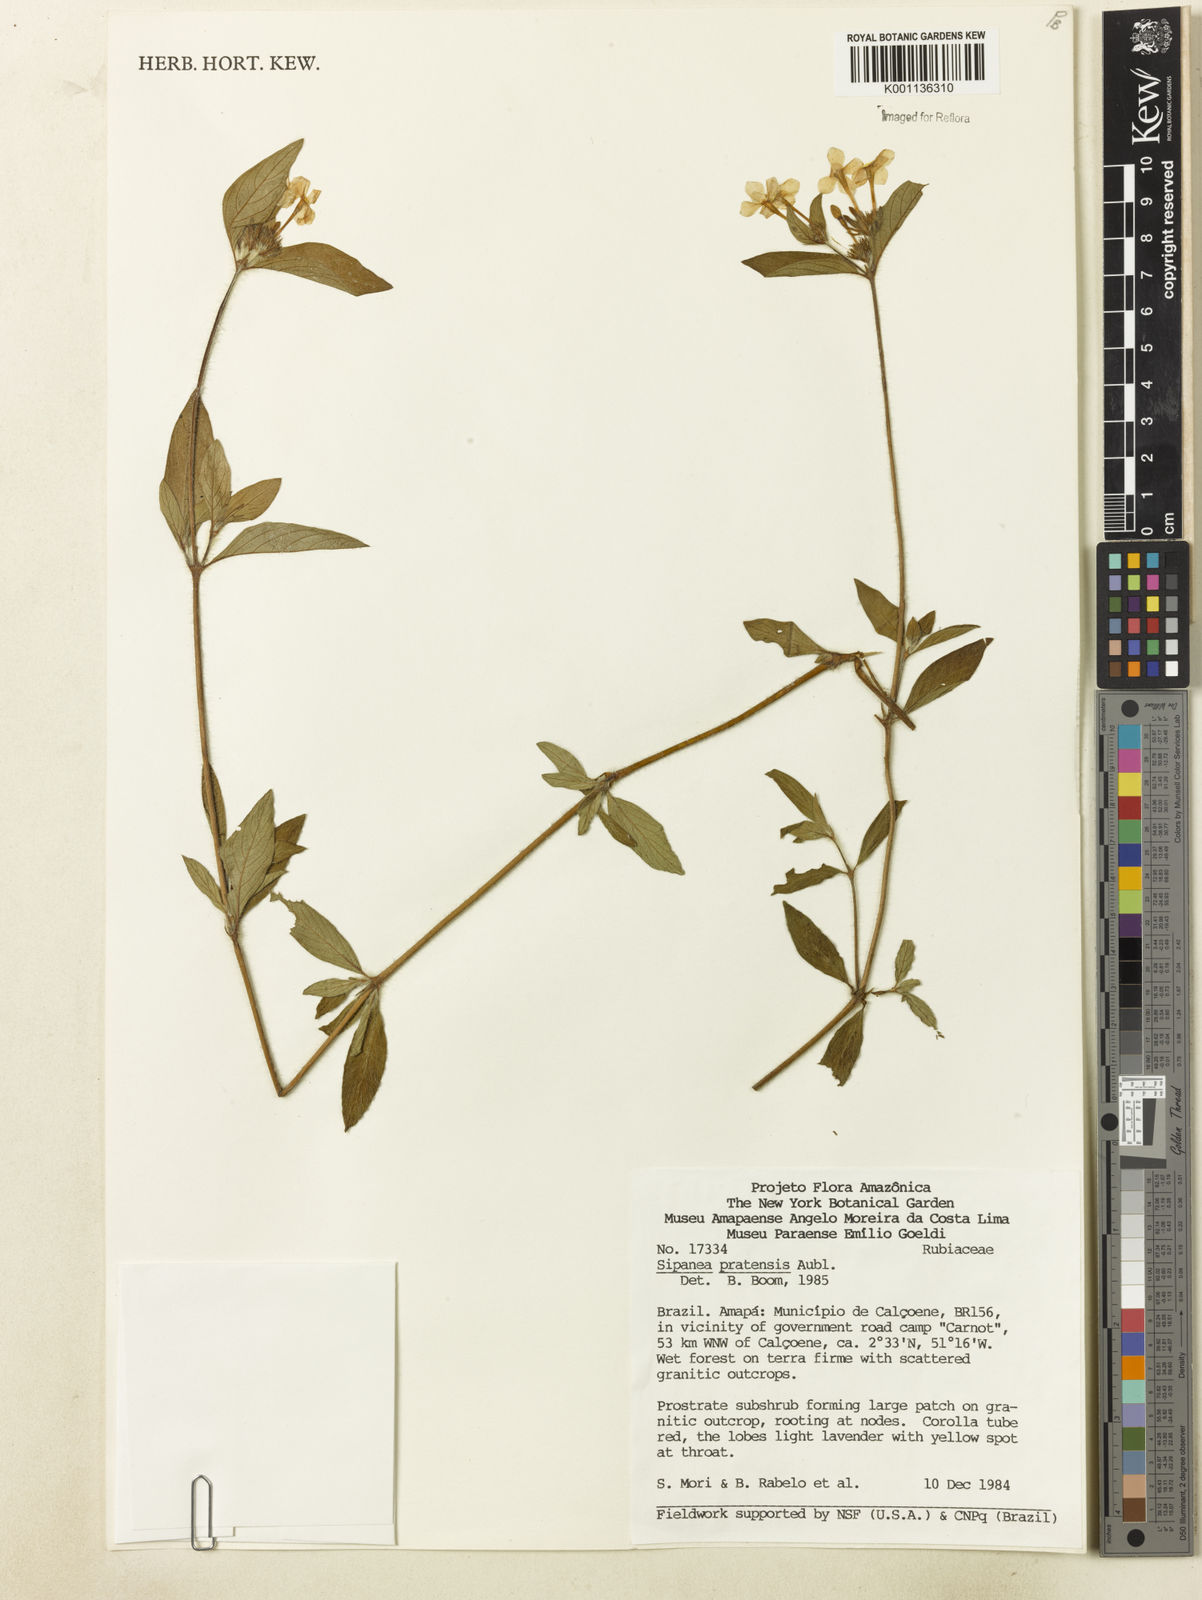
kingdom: Plantae
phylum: Tracheophyta
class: Magnoliopsida
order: Gentianales
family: Rubiaceae
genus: Sipanea
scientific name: Sipanea pratensis
